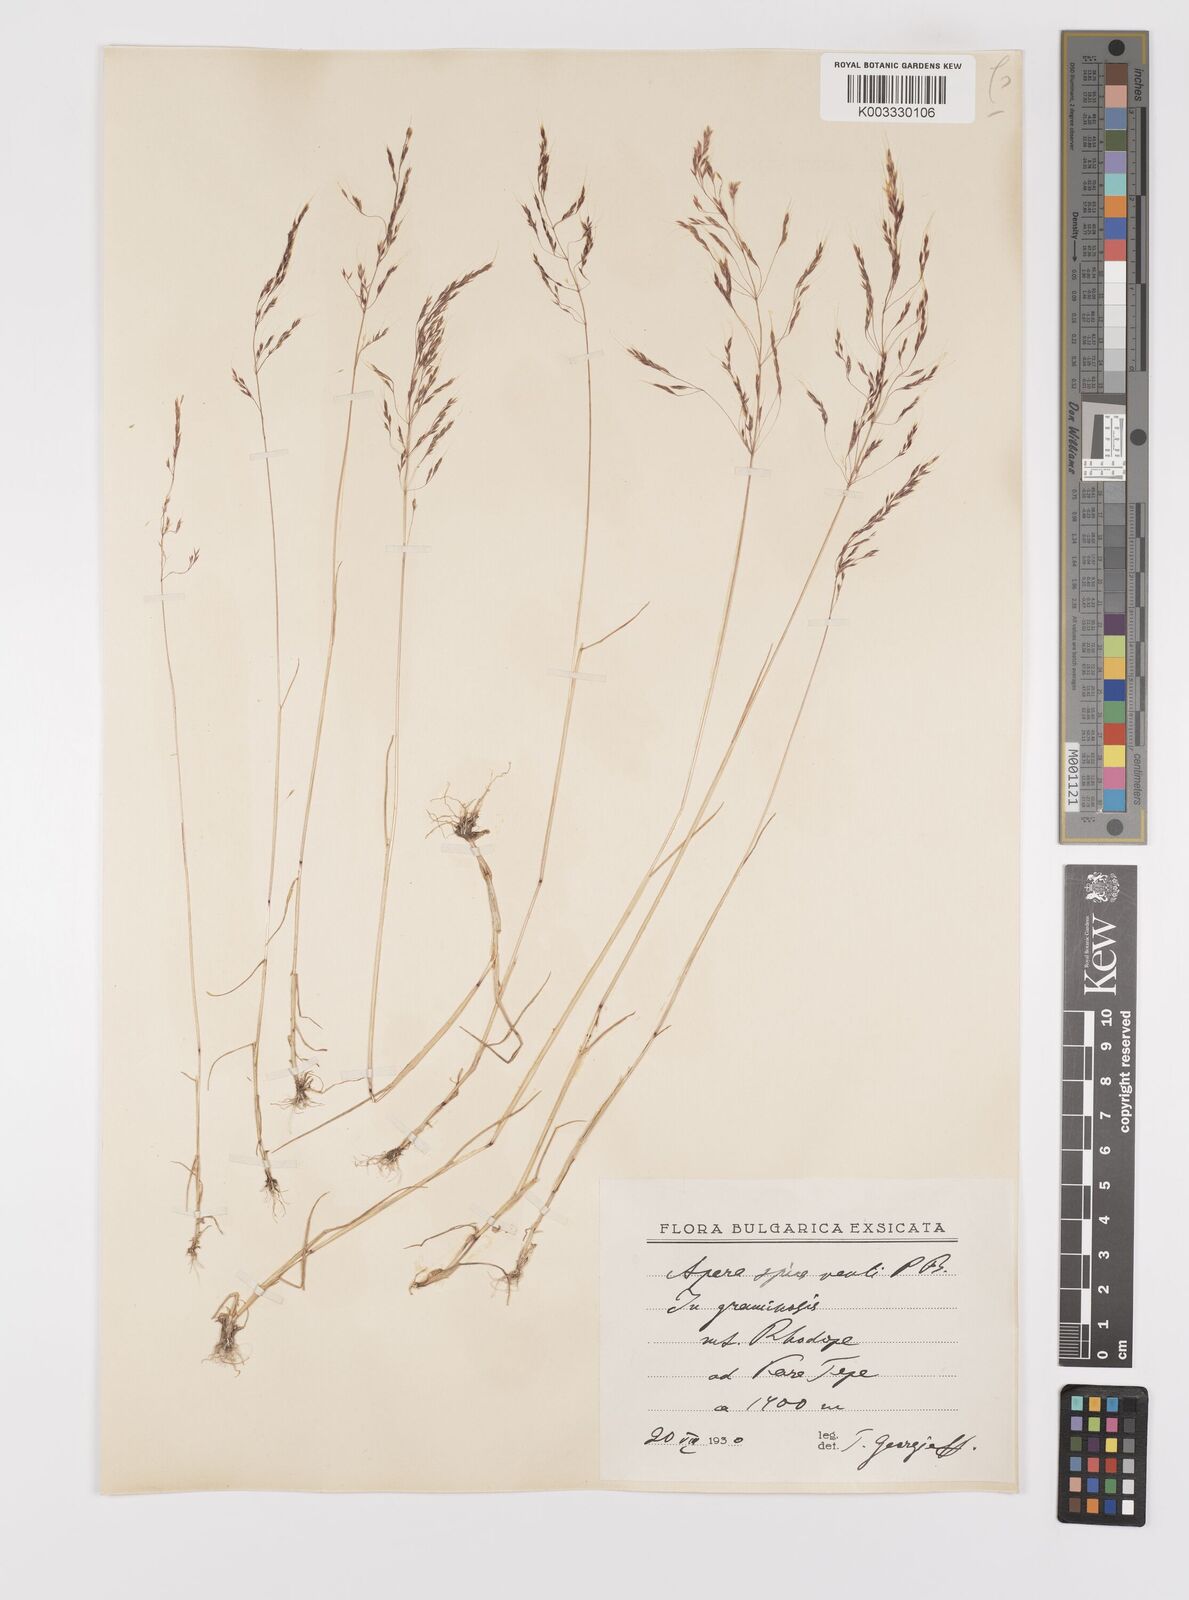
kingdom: Plantae
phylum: Tracheophyta
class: Liliopsida
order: Poales
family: Poaceae
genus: Apera
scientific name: Apera spica-venti
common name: Loose silky-bent
